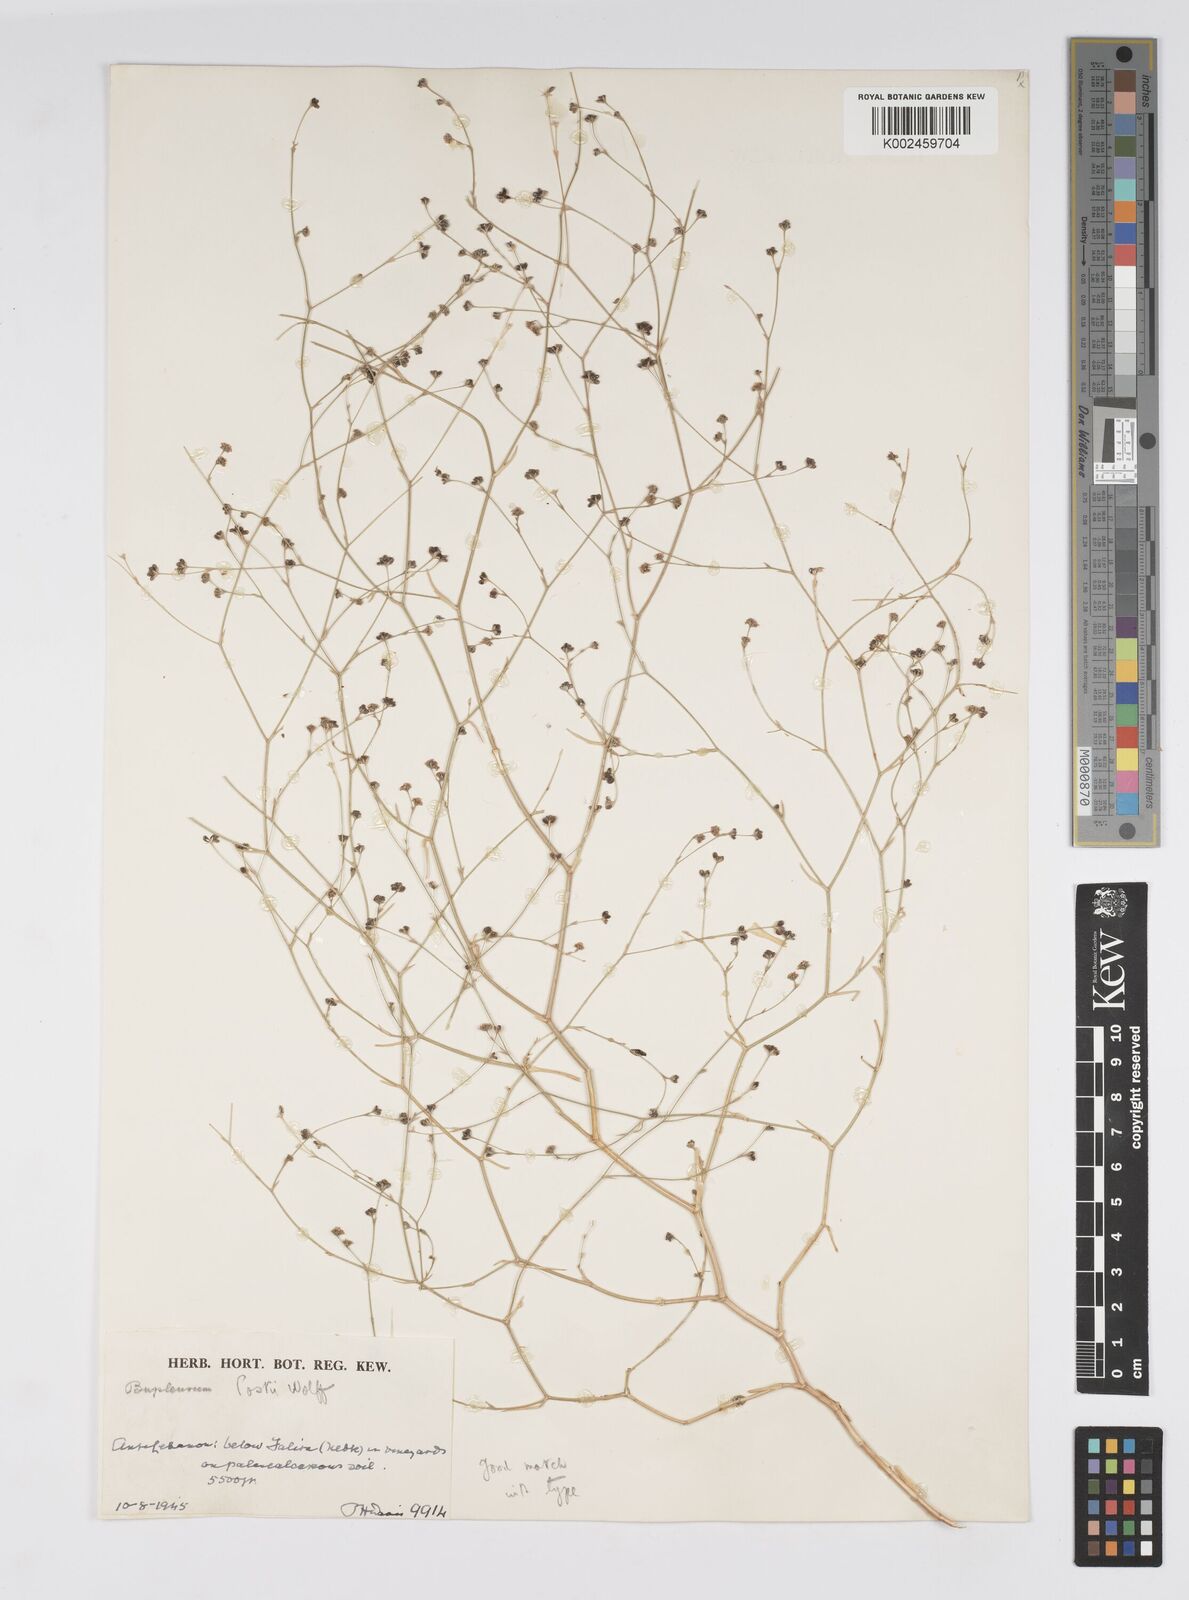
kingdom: Plantae
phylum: Tracheophyta
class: Magnoliopsida
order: Apiales
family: Apiaceae
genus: Bupleurum
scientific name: Bupleurum postii
